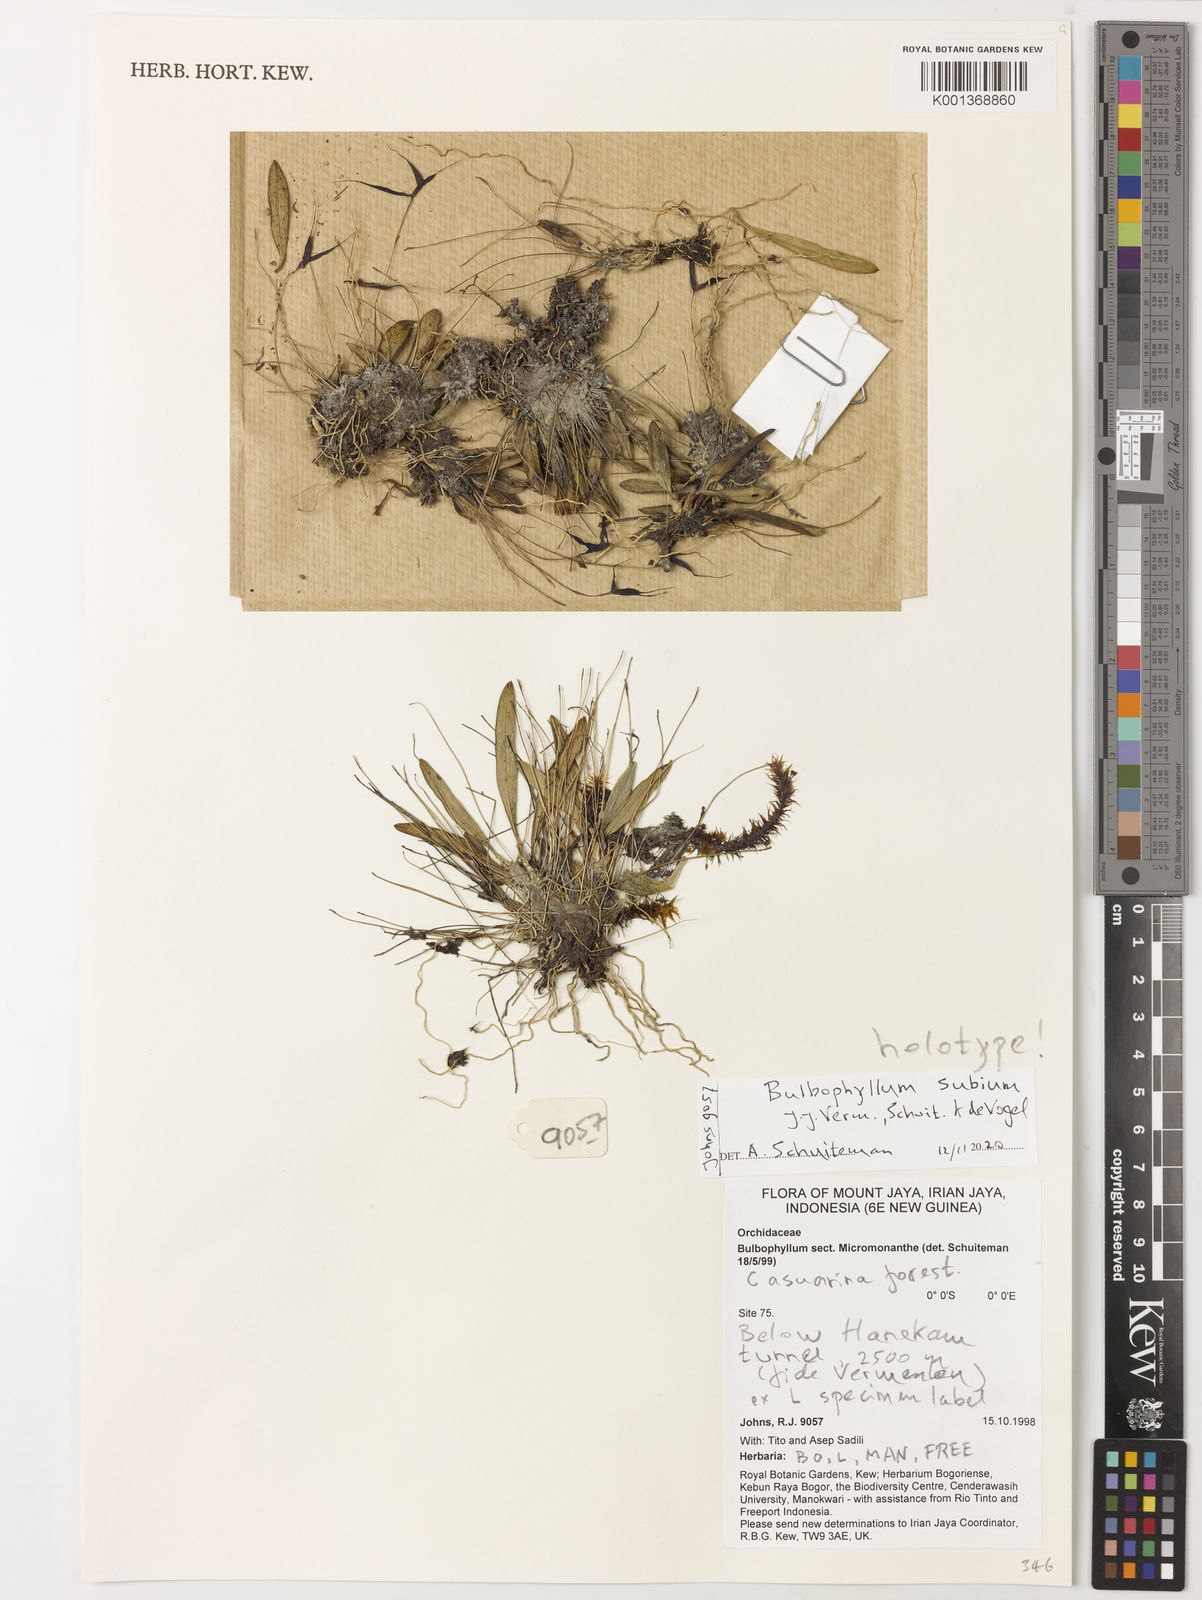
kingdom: Plantae
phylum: Tracheophyta
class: Liliopsida
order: Asparagales
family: Orchidaceae
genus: Bulbophyllum
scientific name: Bulbophyllum
